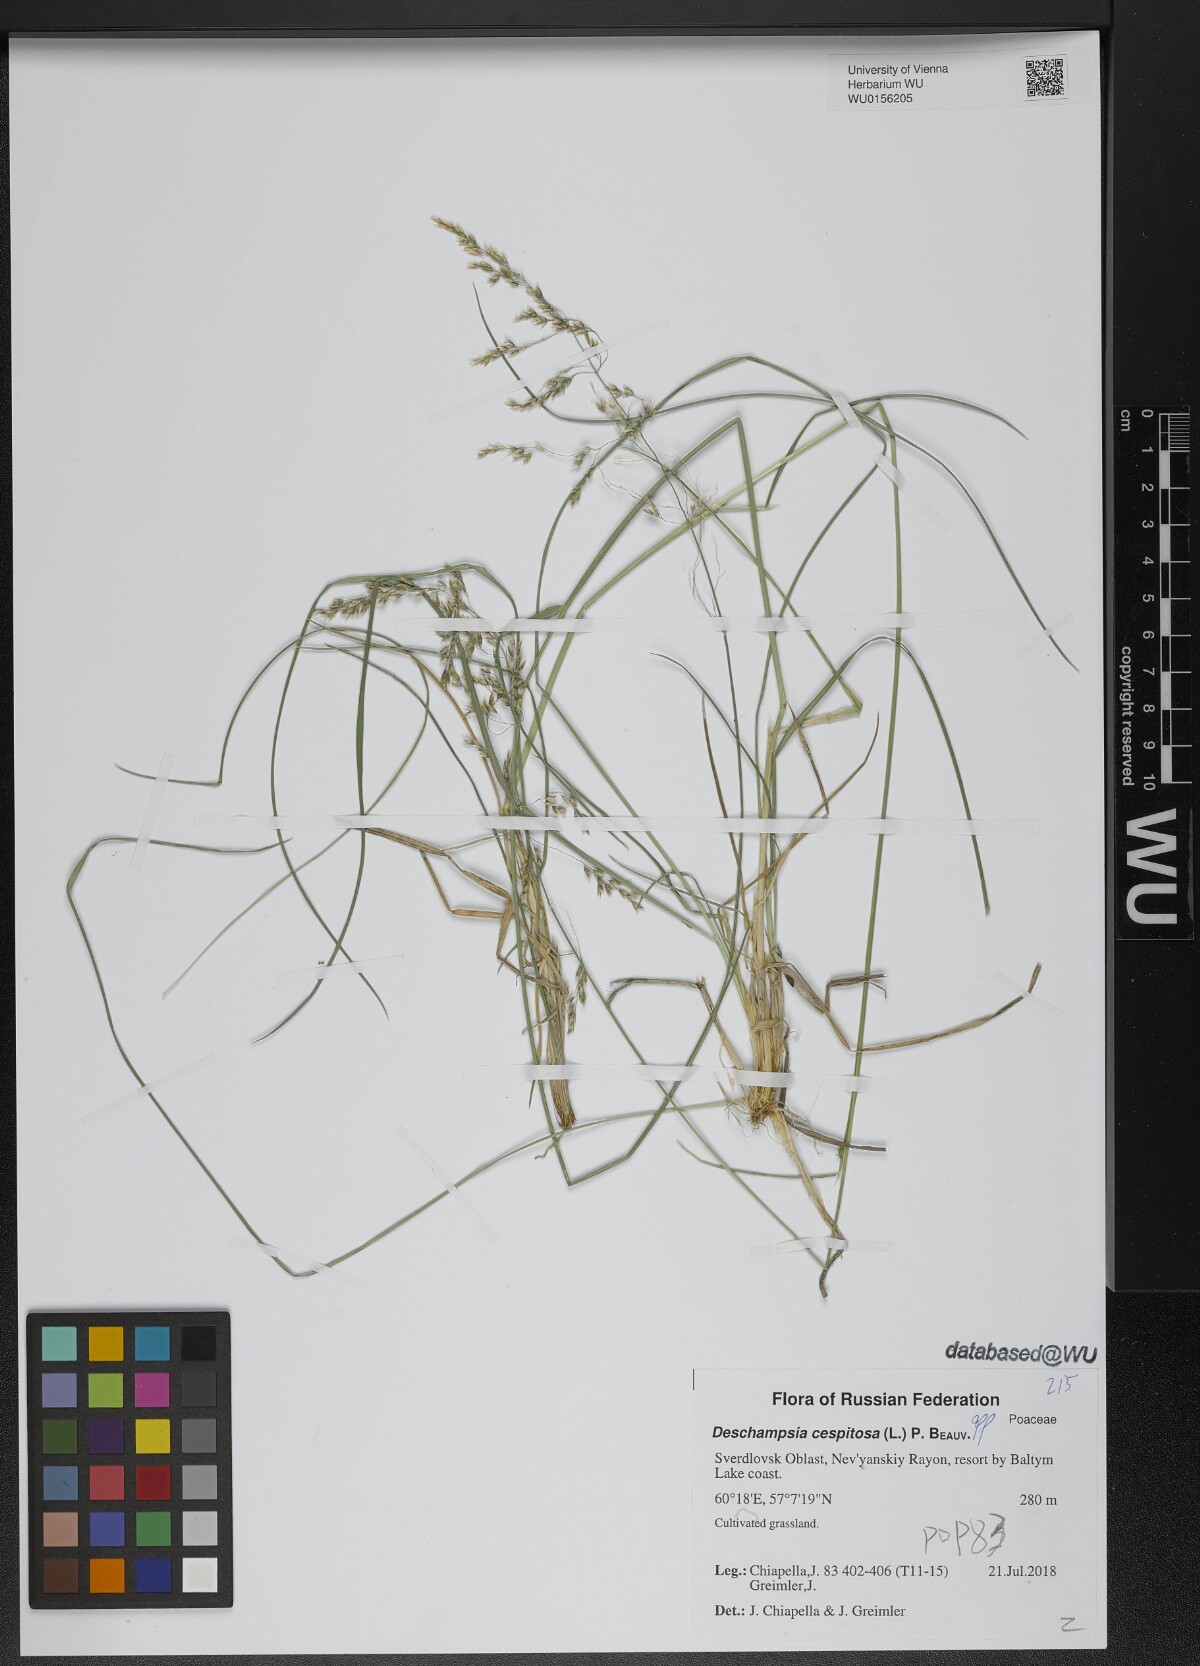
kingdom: Plantae
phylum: Tracheophyta
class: Liliopsida
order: Poales
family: Poaceae
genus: Deschampsia
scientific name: Deschampsia cespitosa
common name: Tufted hair-grass
